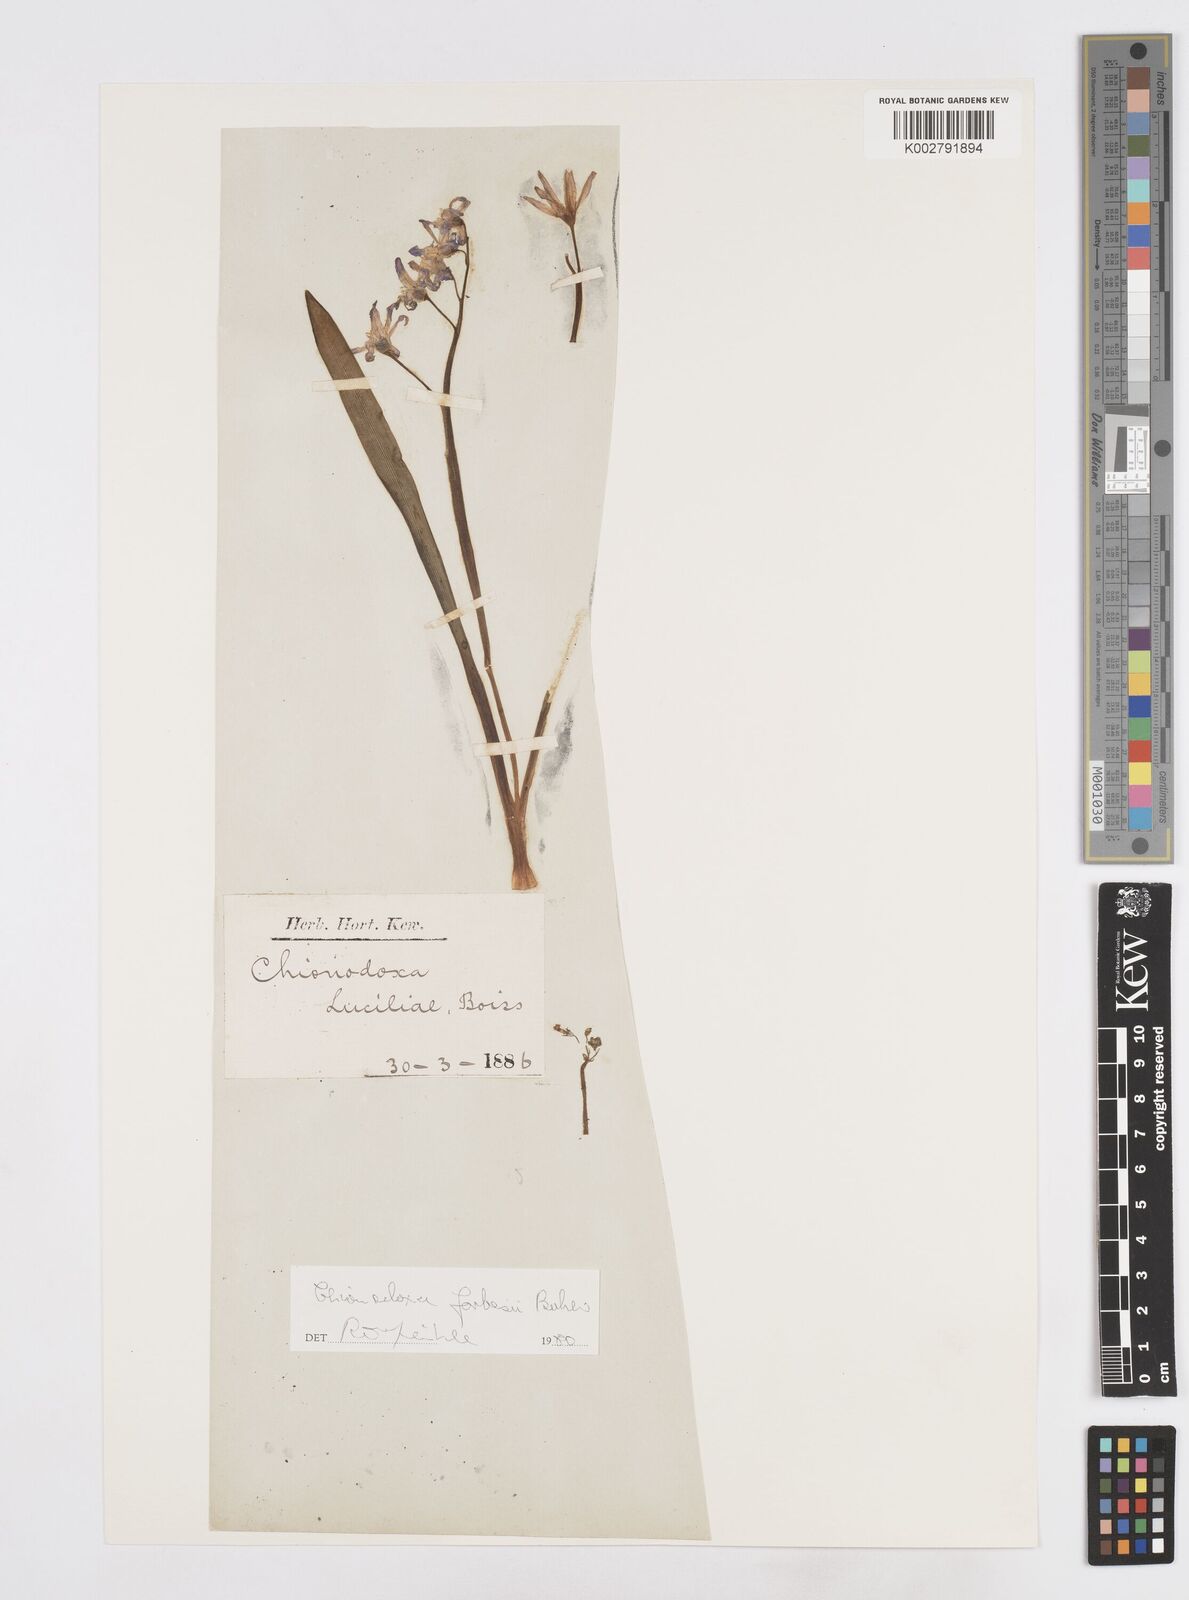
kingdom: Plantae
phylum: Tracheophyta
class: Liliopsida
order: Asparagales
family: Asparagaceae
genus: Scilla
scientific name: Scilla forbesii
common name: Glory-of-the-snow
